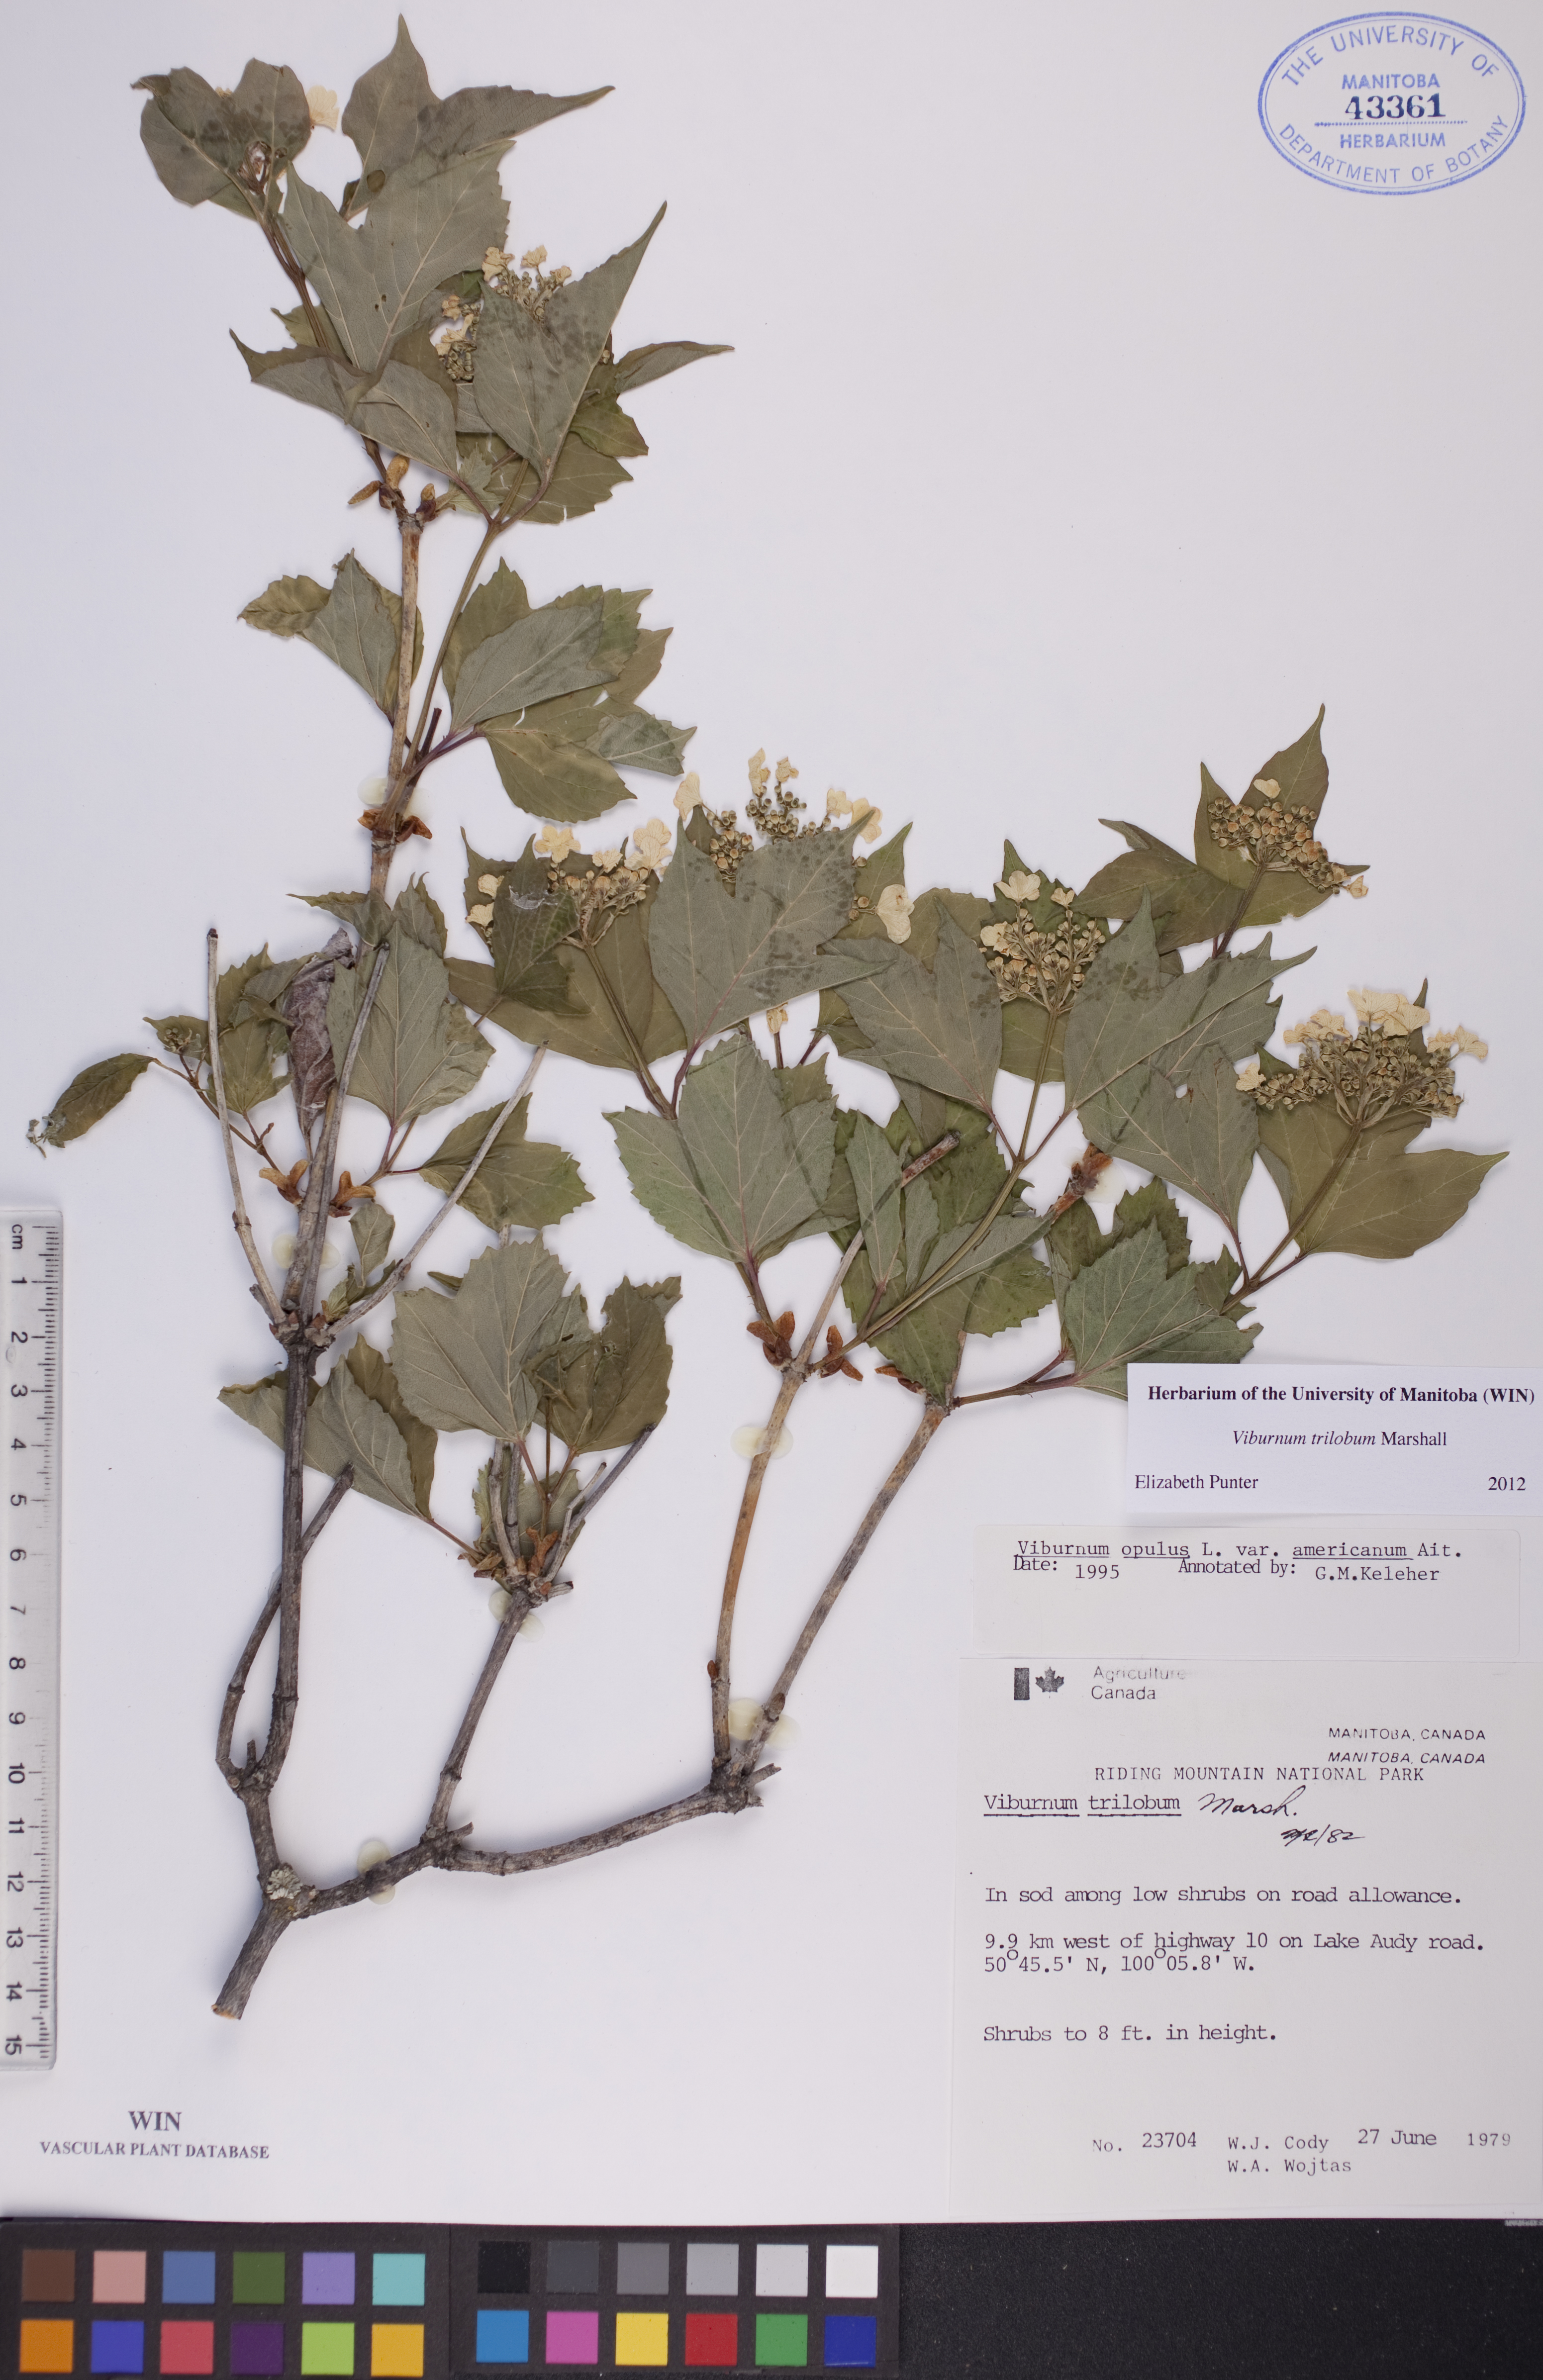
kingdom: Plantae
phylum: Tracheophyta
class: Magnoliopsida
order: Dipsacales
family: Viburnaceae
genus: Viburnum
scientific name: Viburnum trilobum
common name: American cranberrybush
